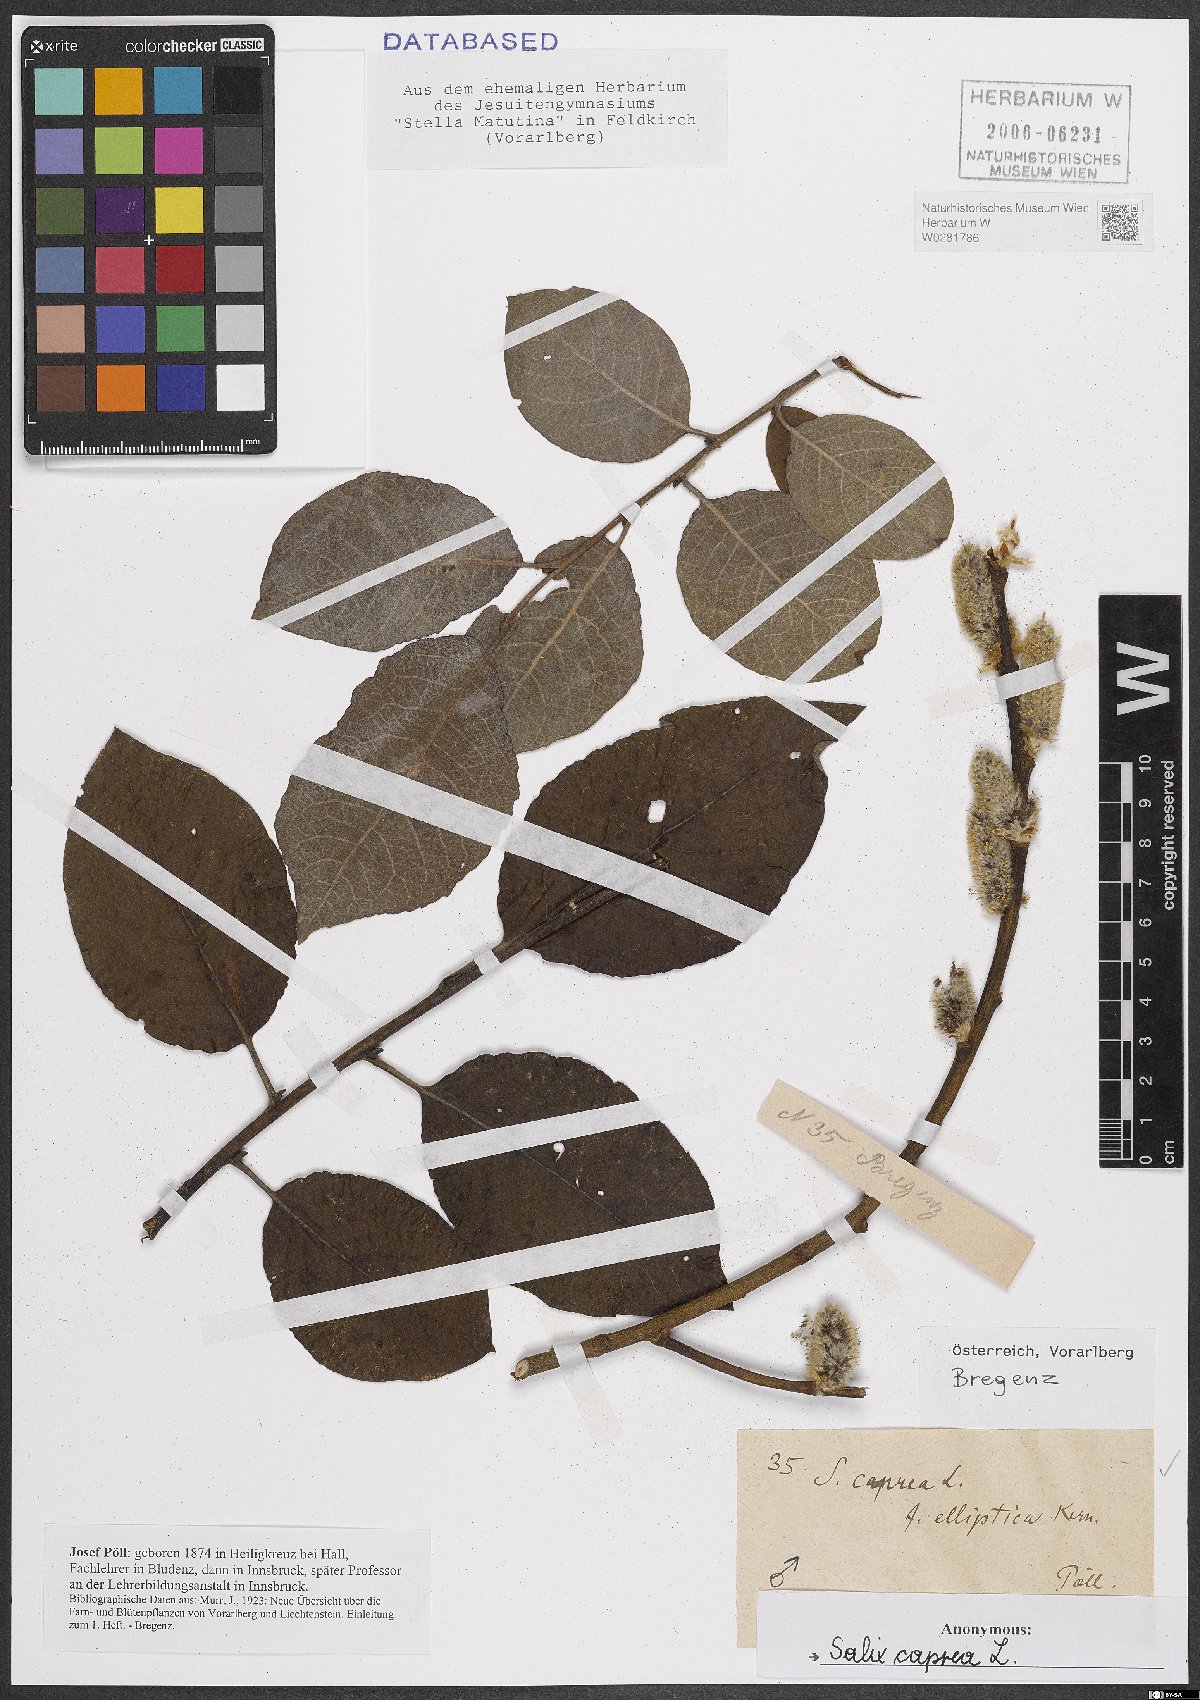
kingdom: Plantae
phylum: Tracheophyta
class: Magnoliopsida
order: Malpighiales
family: Salicaceae
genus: Salix
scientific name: Salix caprea
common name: Goat willow
